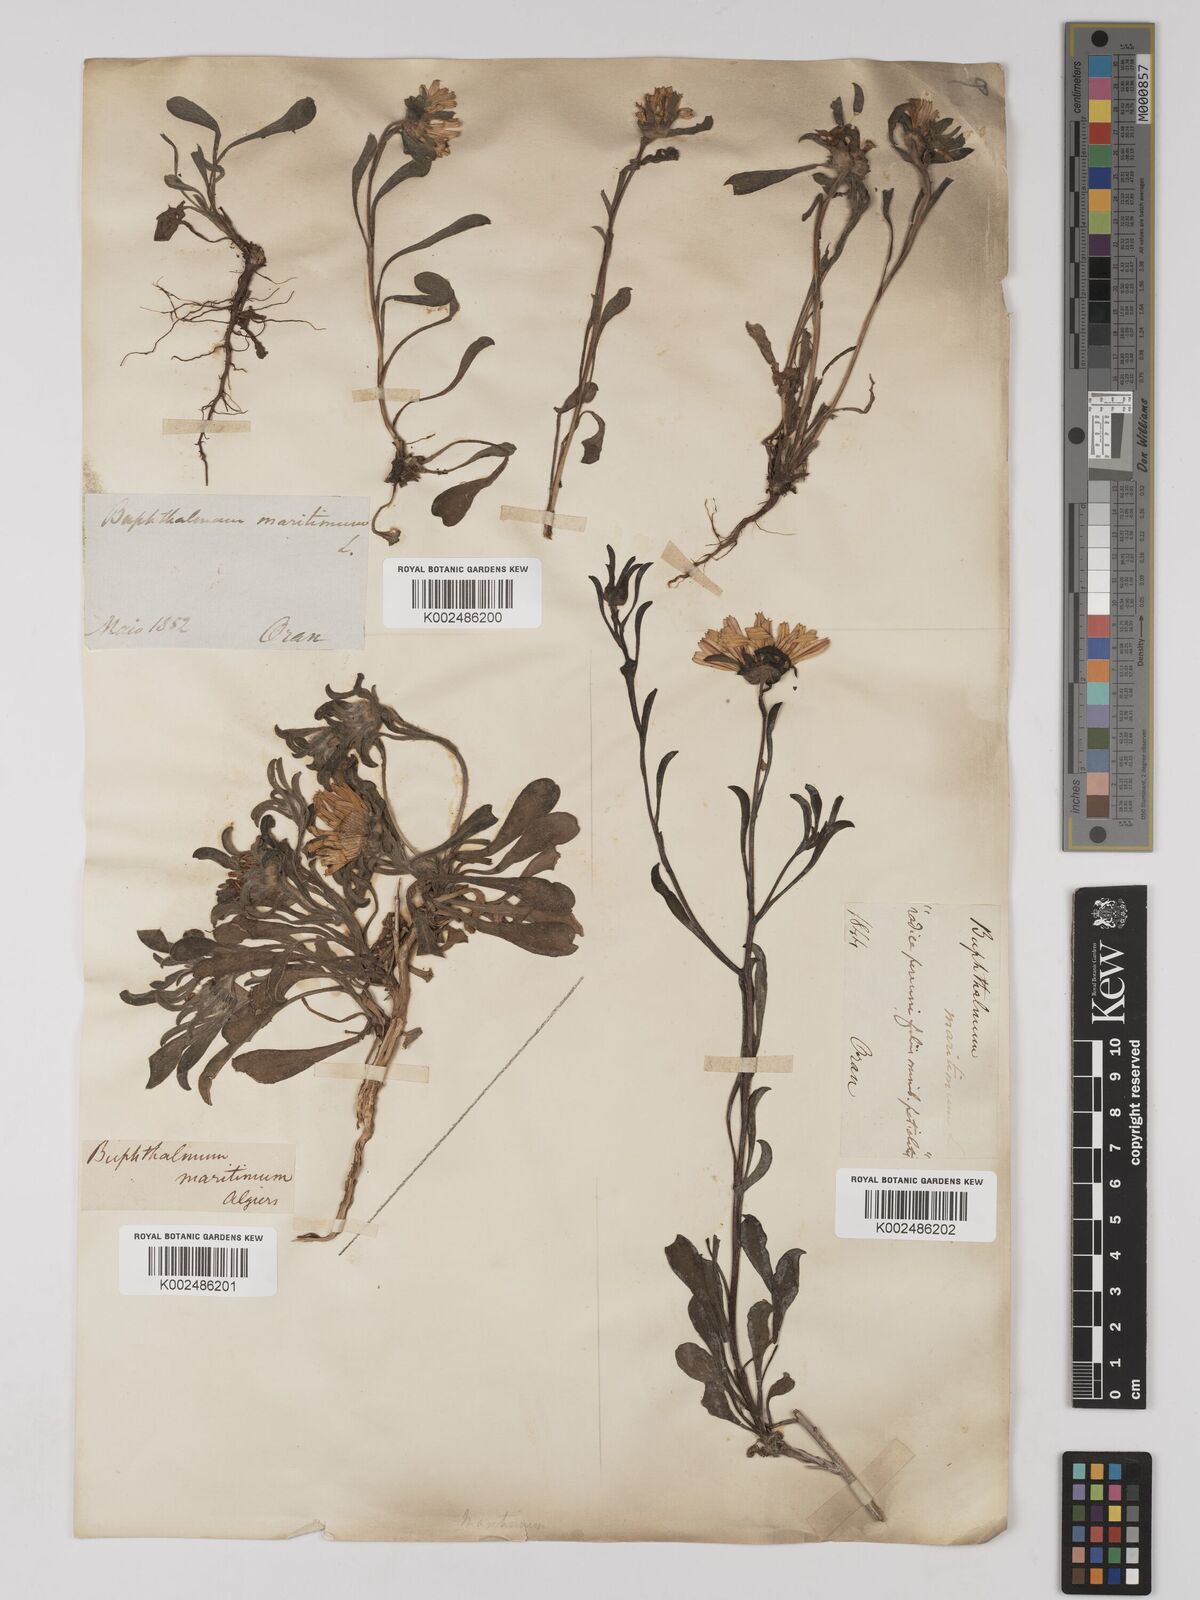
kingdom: Plantae
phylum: Tracheophyta
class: Magnoliopsida
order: Asterales
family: Asteraceae
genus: Pallenis
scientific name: Pallenis maritima
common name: Golden coin daisy
